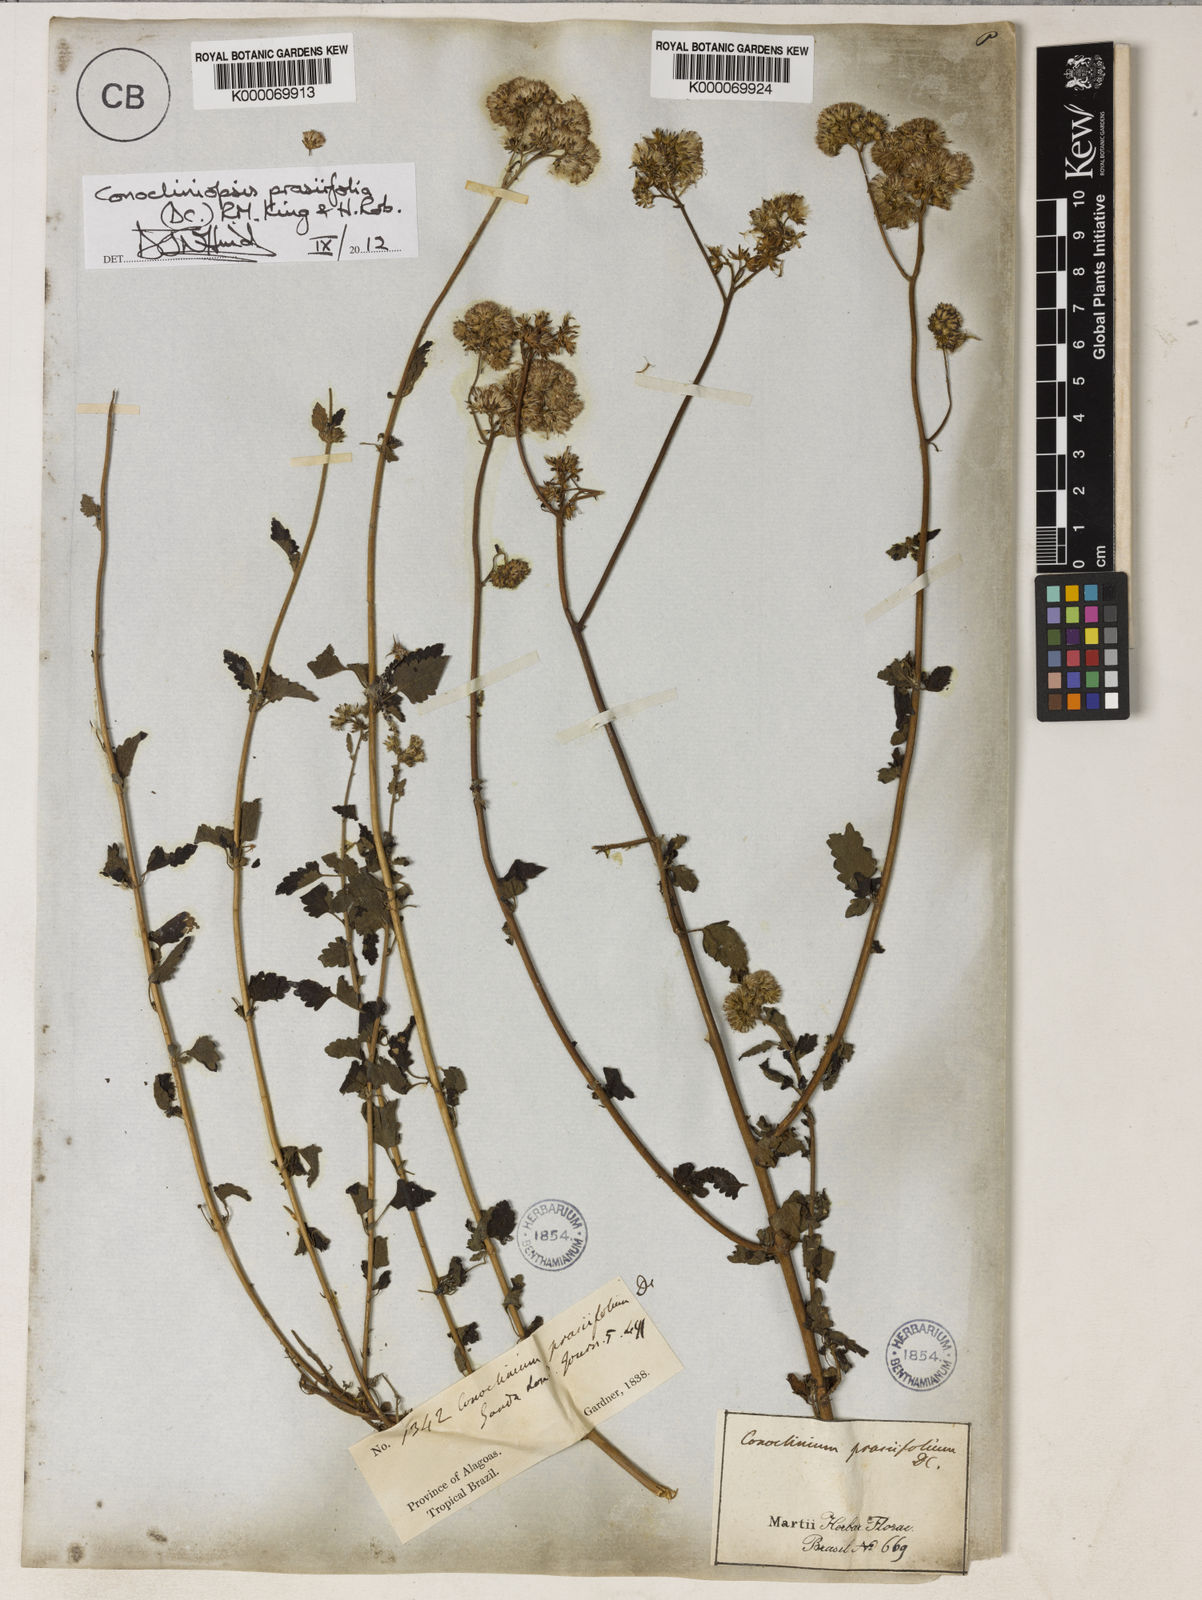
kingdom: Plantae
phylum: Tracheophyta
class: Magnoliopsida
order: Asterales
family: Asteraceae
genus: Conocliniopsis
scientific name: Conocliniopsis grossedentata
